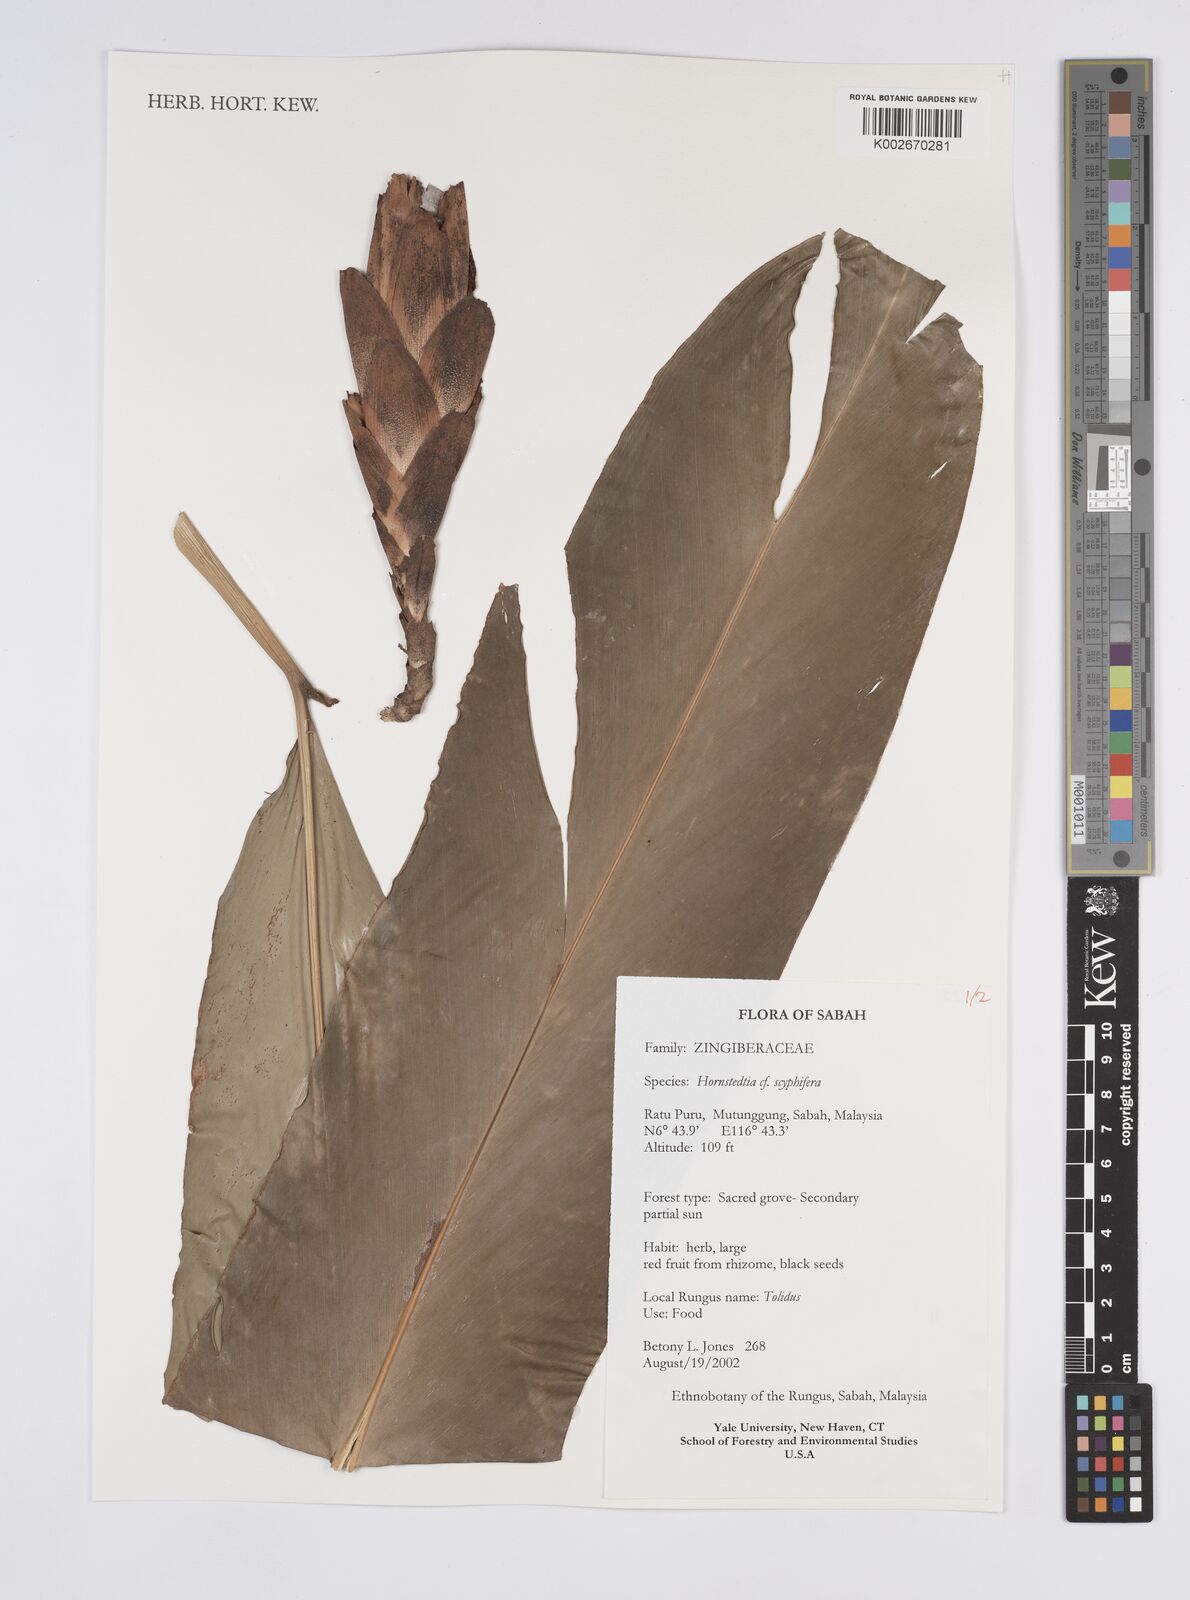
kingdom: Plantae
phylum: Tracheophyta
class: Liliopsida
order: Zingiberales
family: Zingiberaceae
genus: Hornstedtia
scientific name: Hornstedtia
